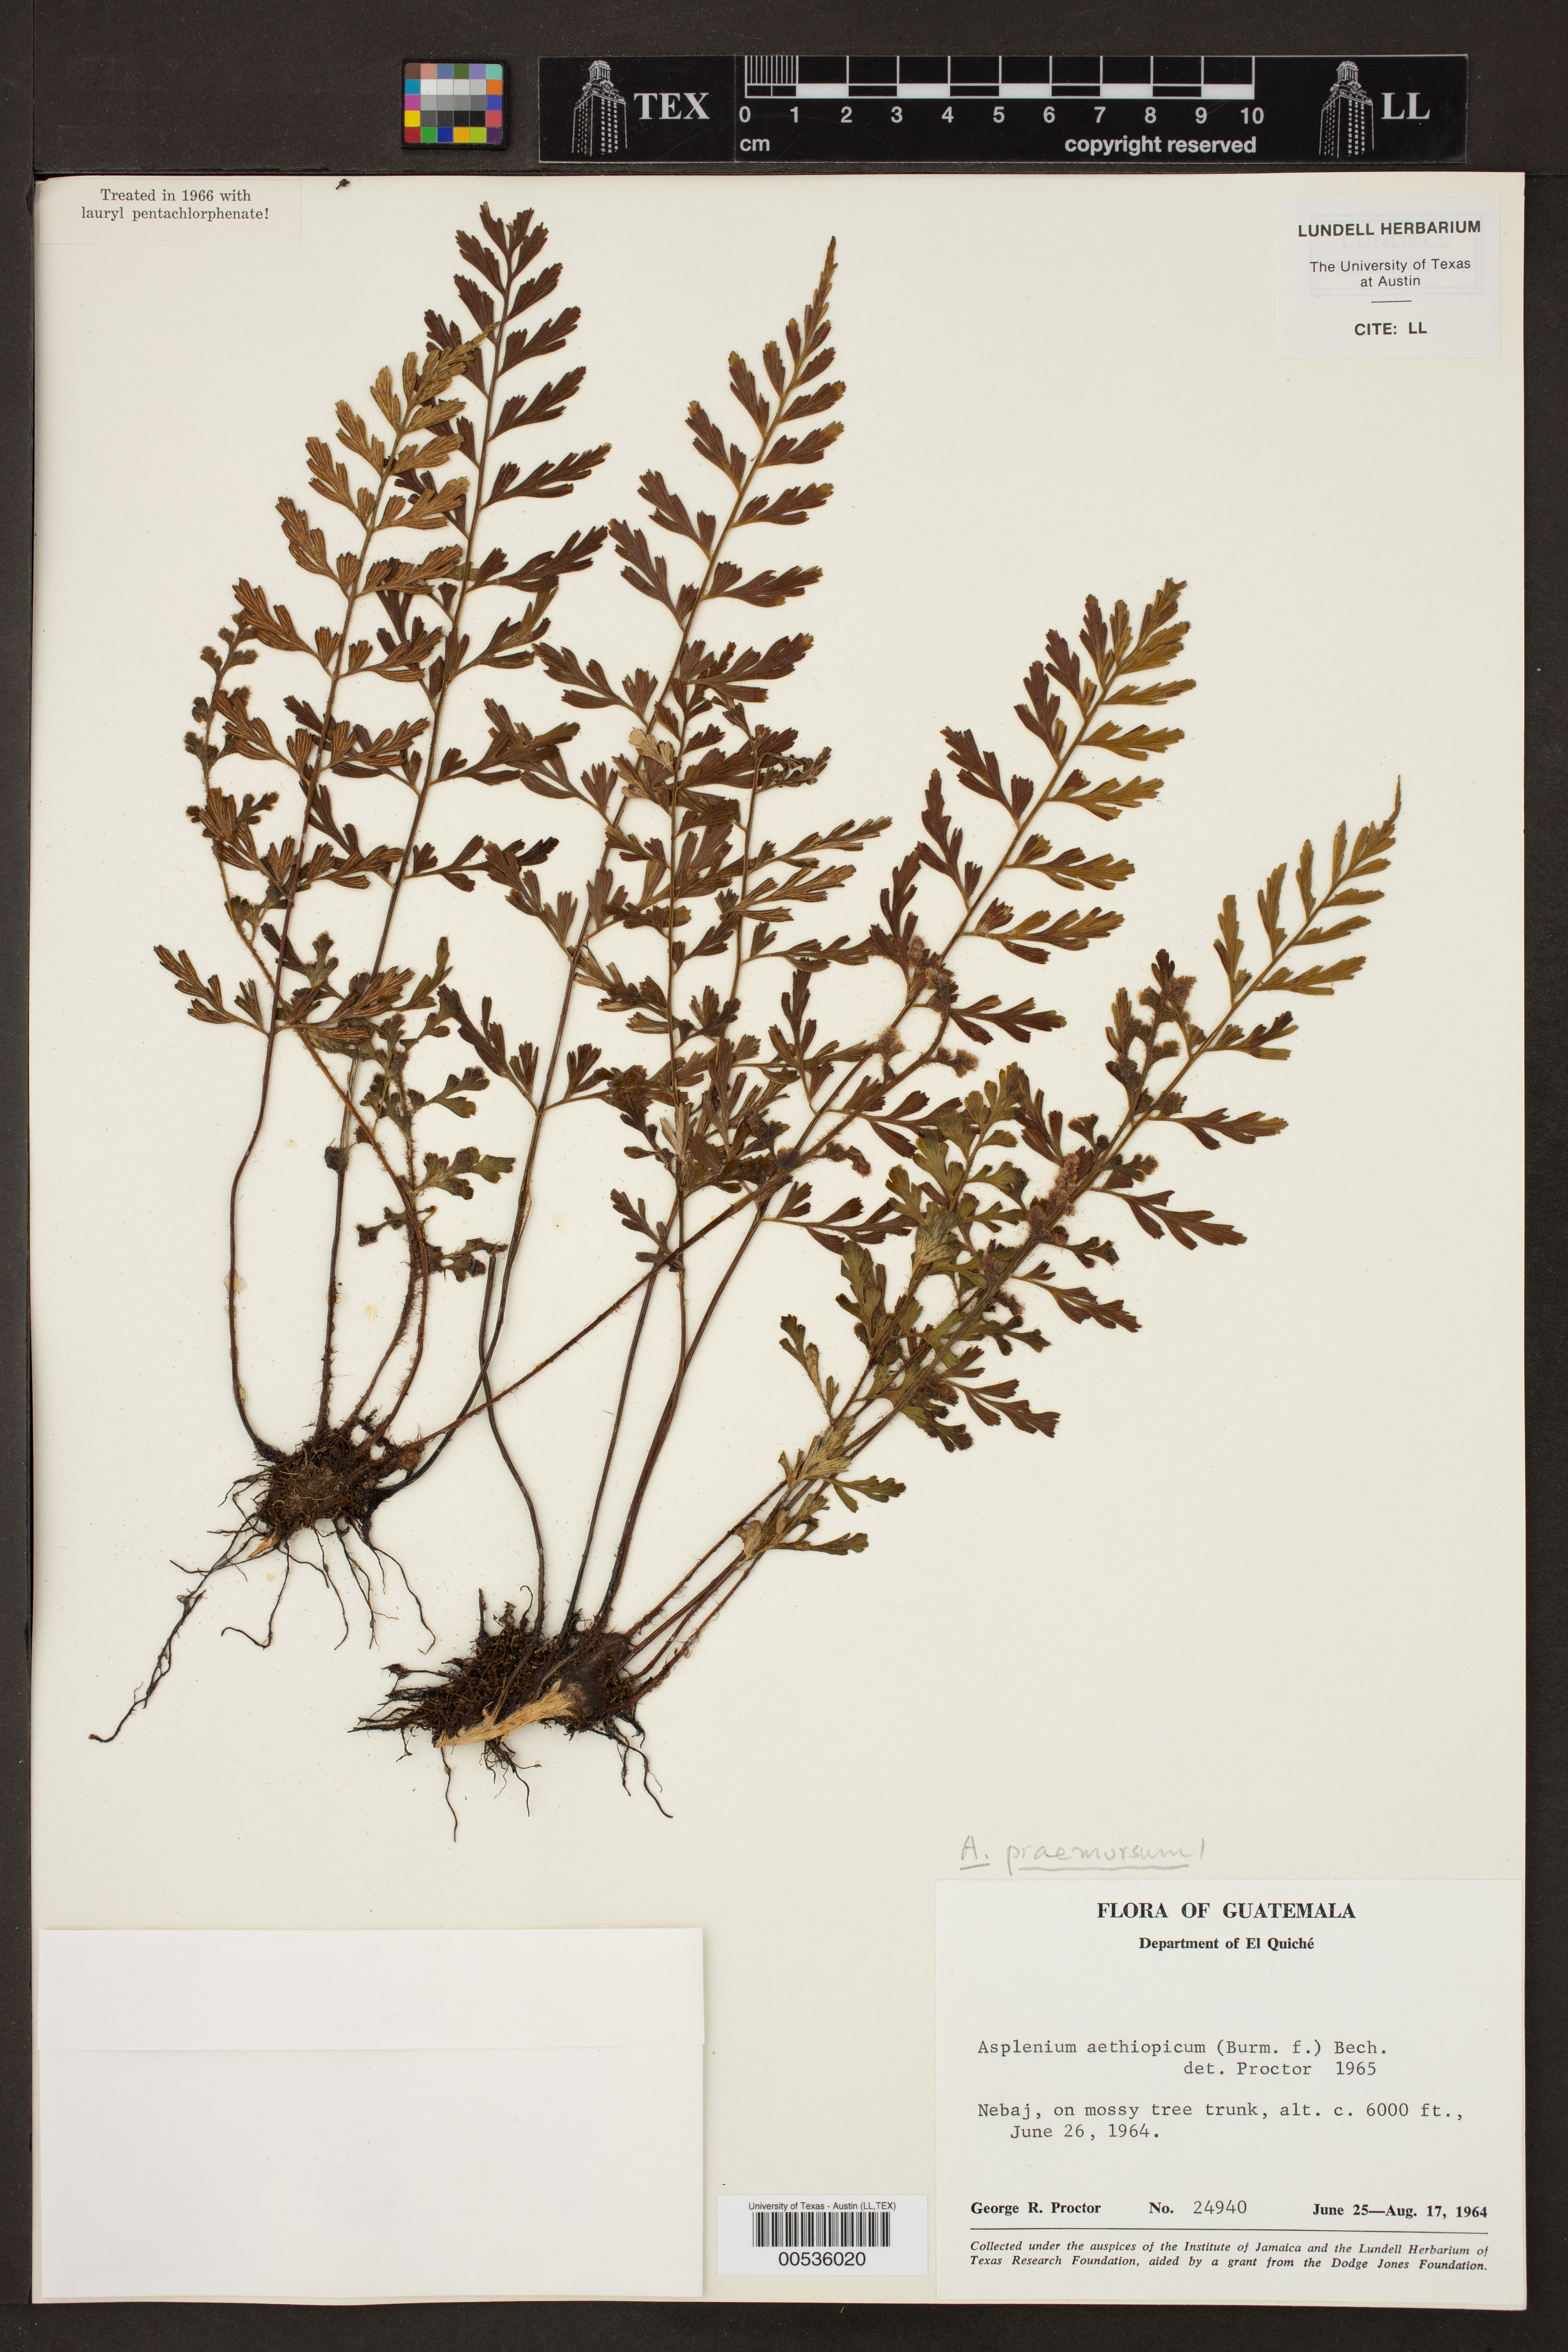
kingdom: Plantae
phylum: Tracheophyta
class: Polypodiopsida
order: Polypodiales
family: Aspleniaceae
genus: Asplenium
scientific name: Asplenium praemorsum
